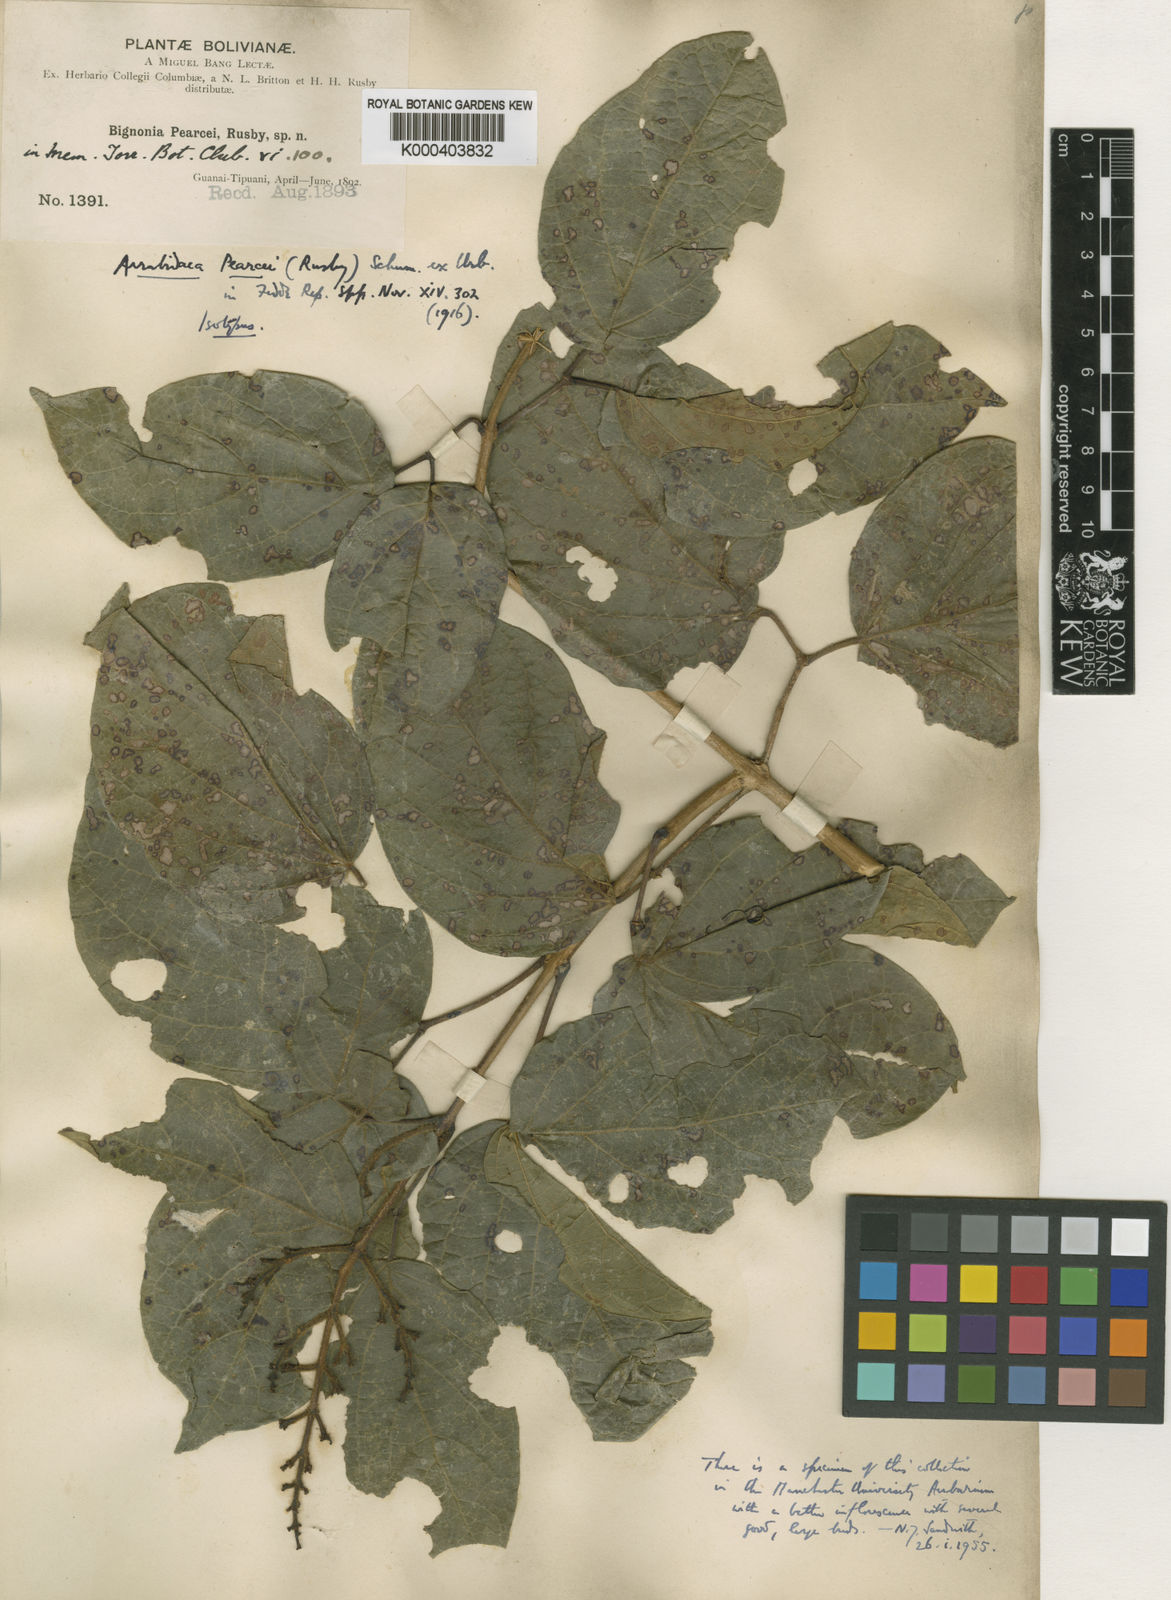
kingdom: Plantae
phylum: Tracheophyta
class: Magnoliopsida
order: Lamiales
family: Bignoniaceae
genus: Fridericia
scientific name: Fridericia arthrerion
